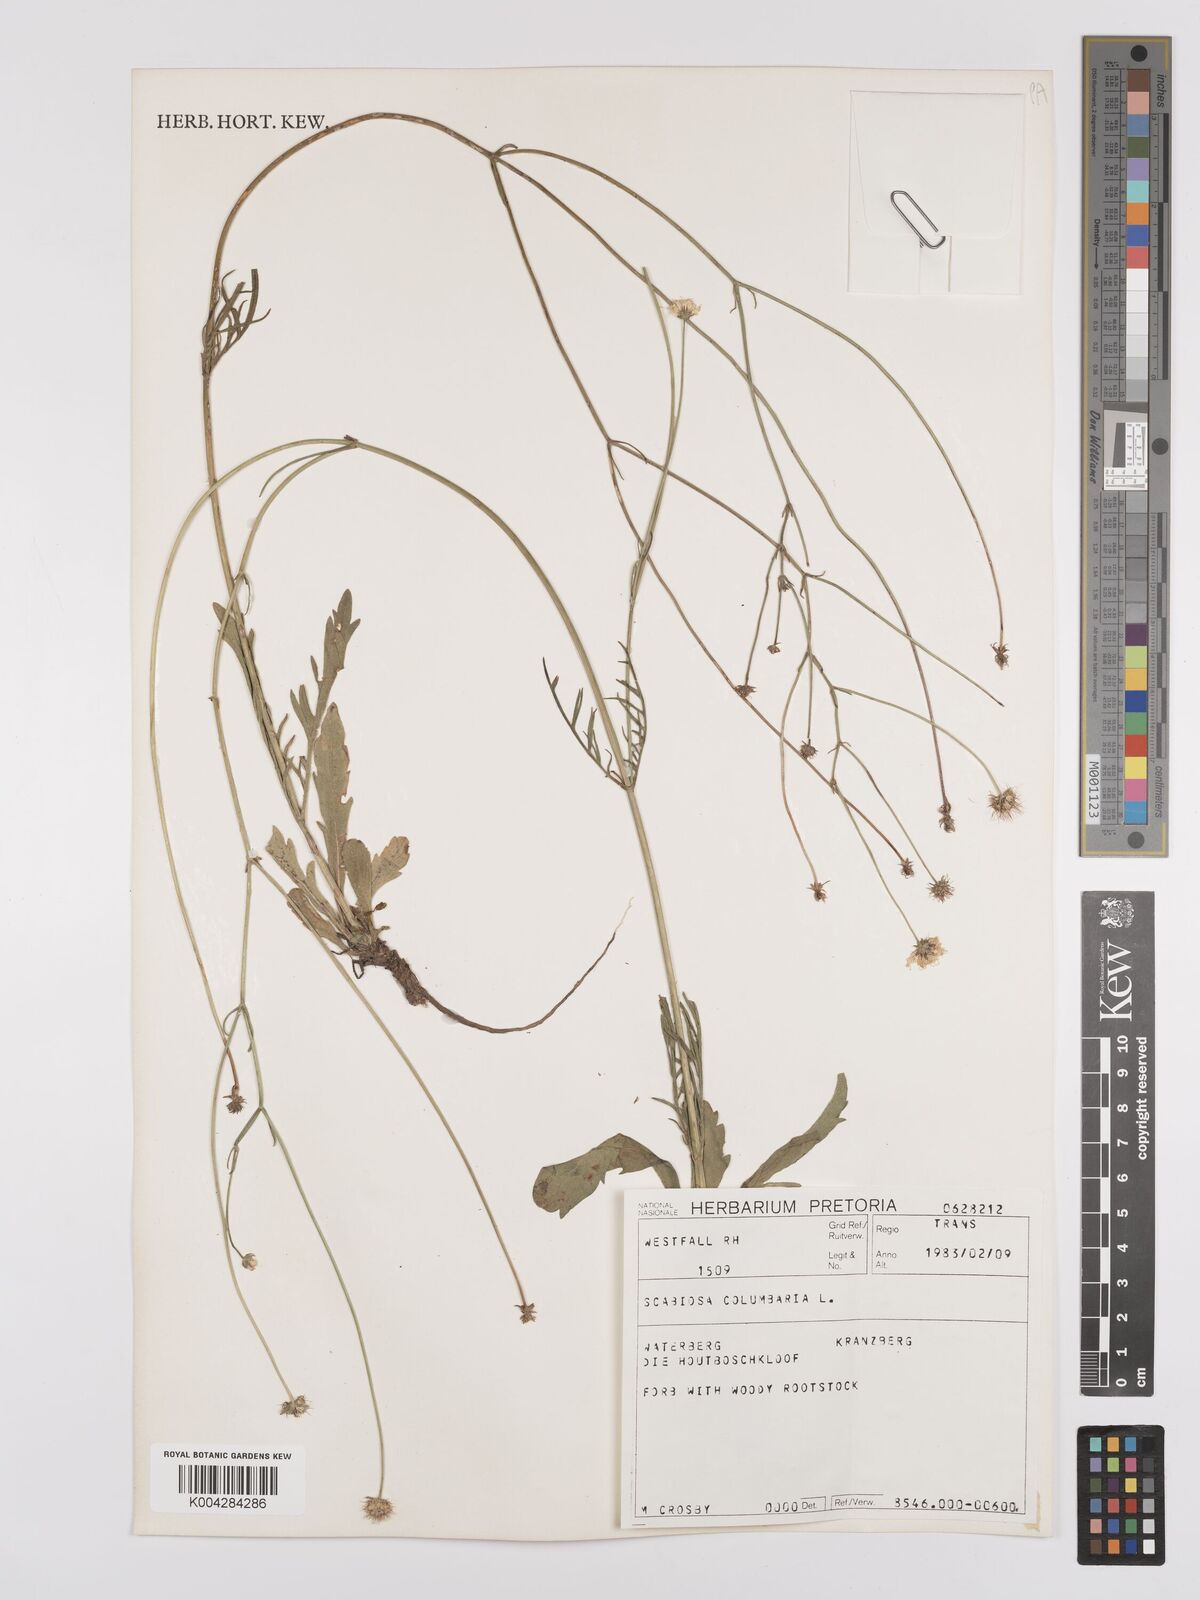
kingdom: Plantae
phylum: Tracheophyta
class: Magnoliopsida
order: Dipsacales
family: Caprifoliaceae
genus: Scabiosa
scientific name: Scabiosa columbaria
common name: Small scabious
